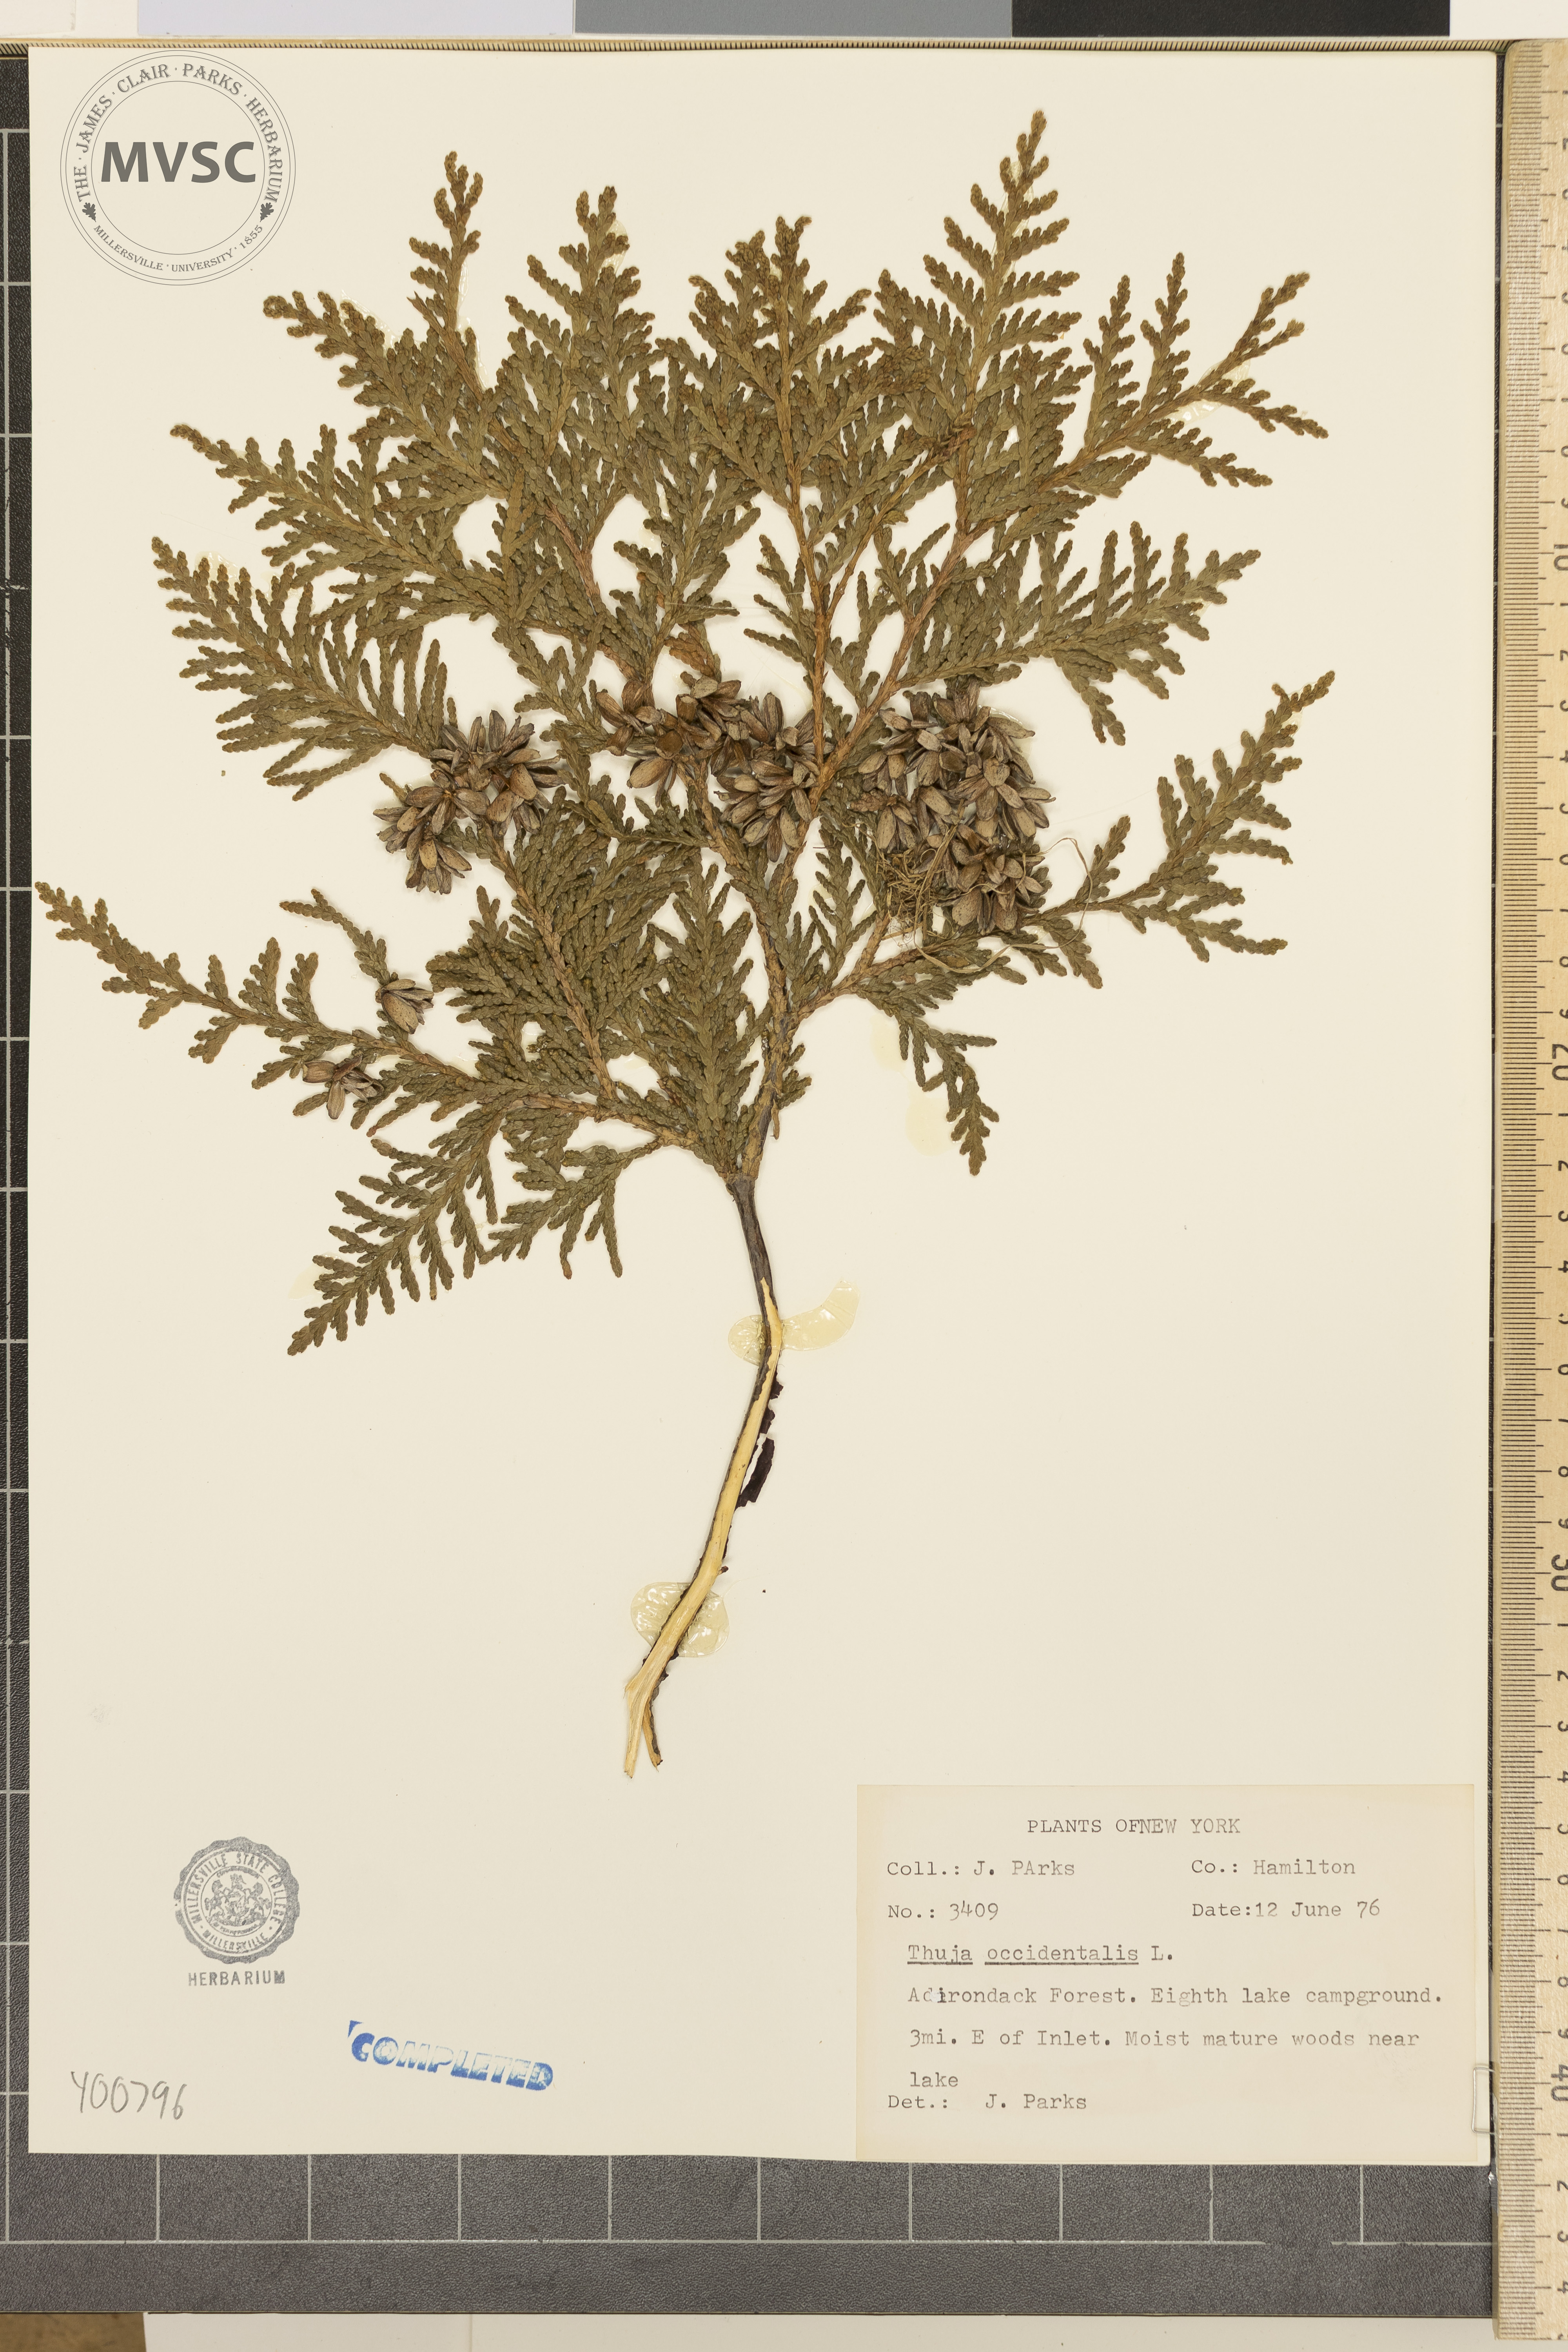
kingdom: Plantae
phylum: Tracheophyta
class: Pinopsida
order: Pinales
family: Cupressaceae
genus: Thuja
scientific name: Thuja occidentalis
